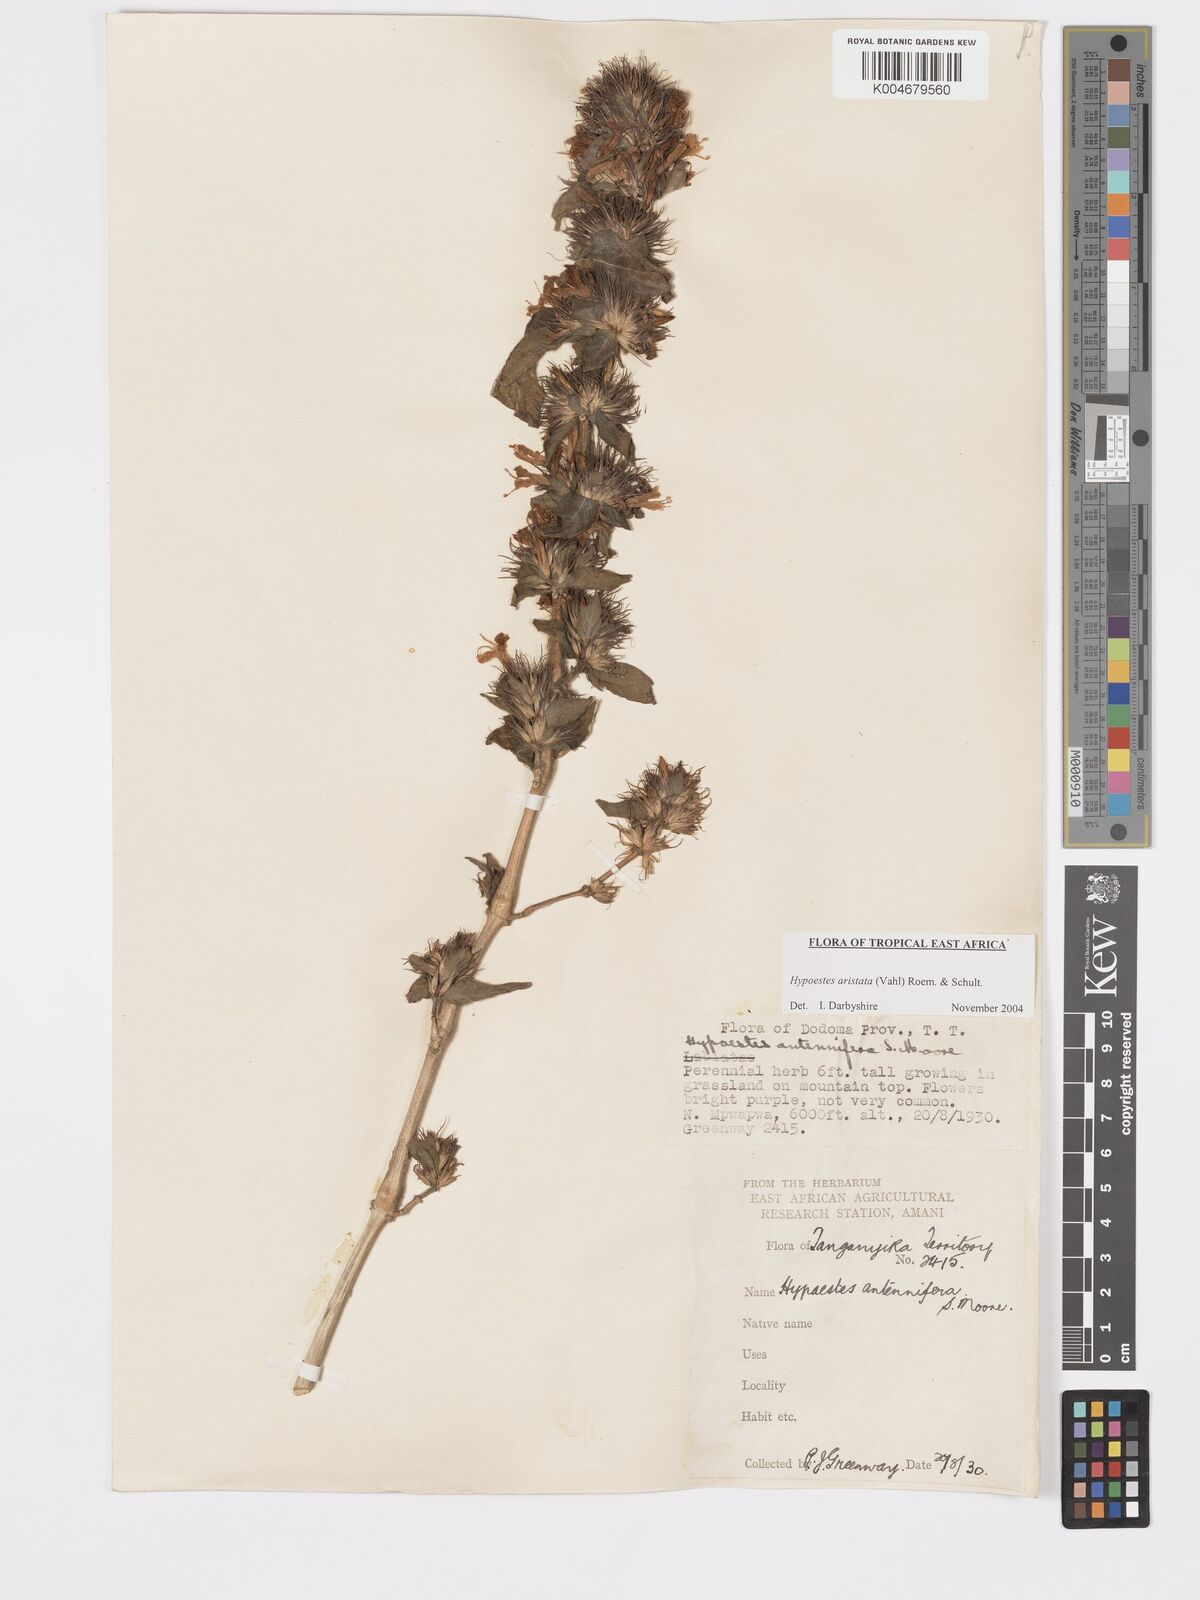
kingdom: Plantae
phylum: Tracheophyta
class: Magnoliopsida
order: Lamiales
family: Acanthaceae
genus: Hypoestes
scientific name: Hypoestes aristata
